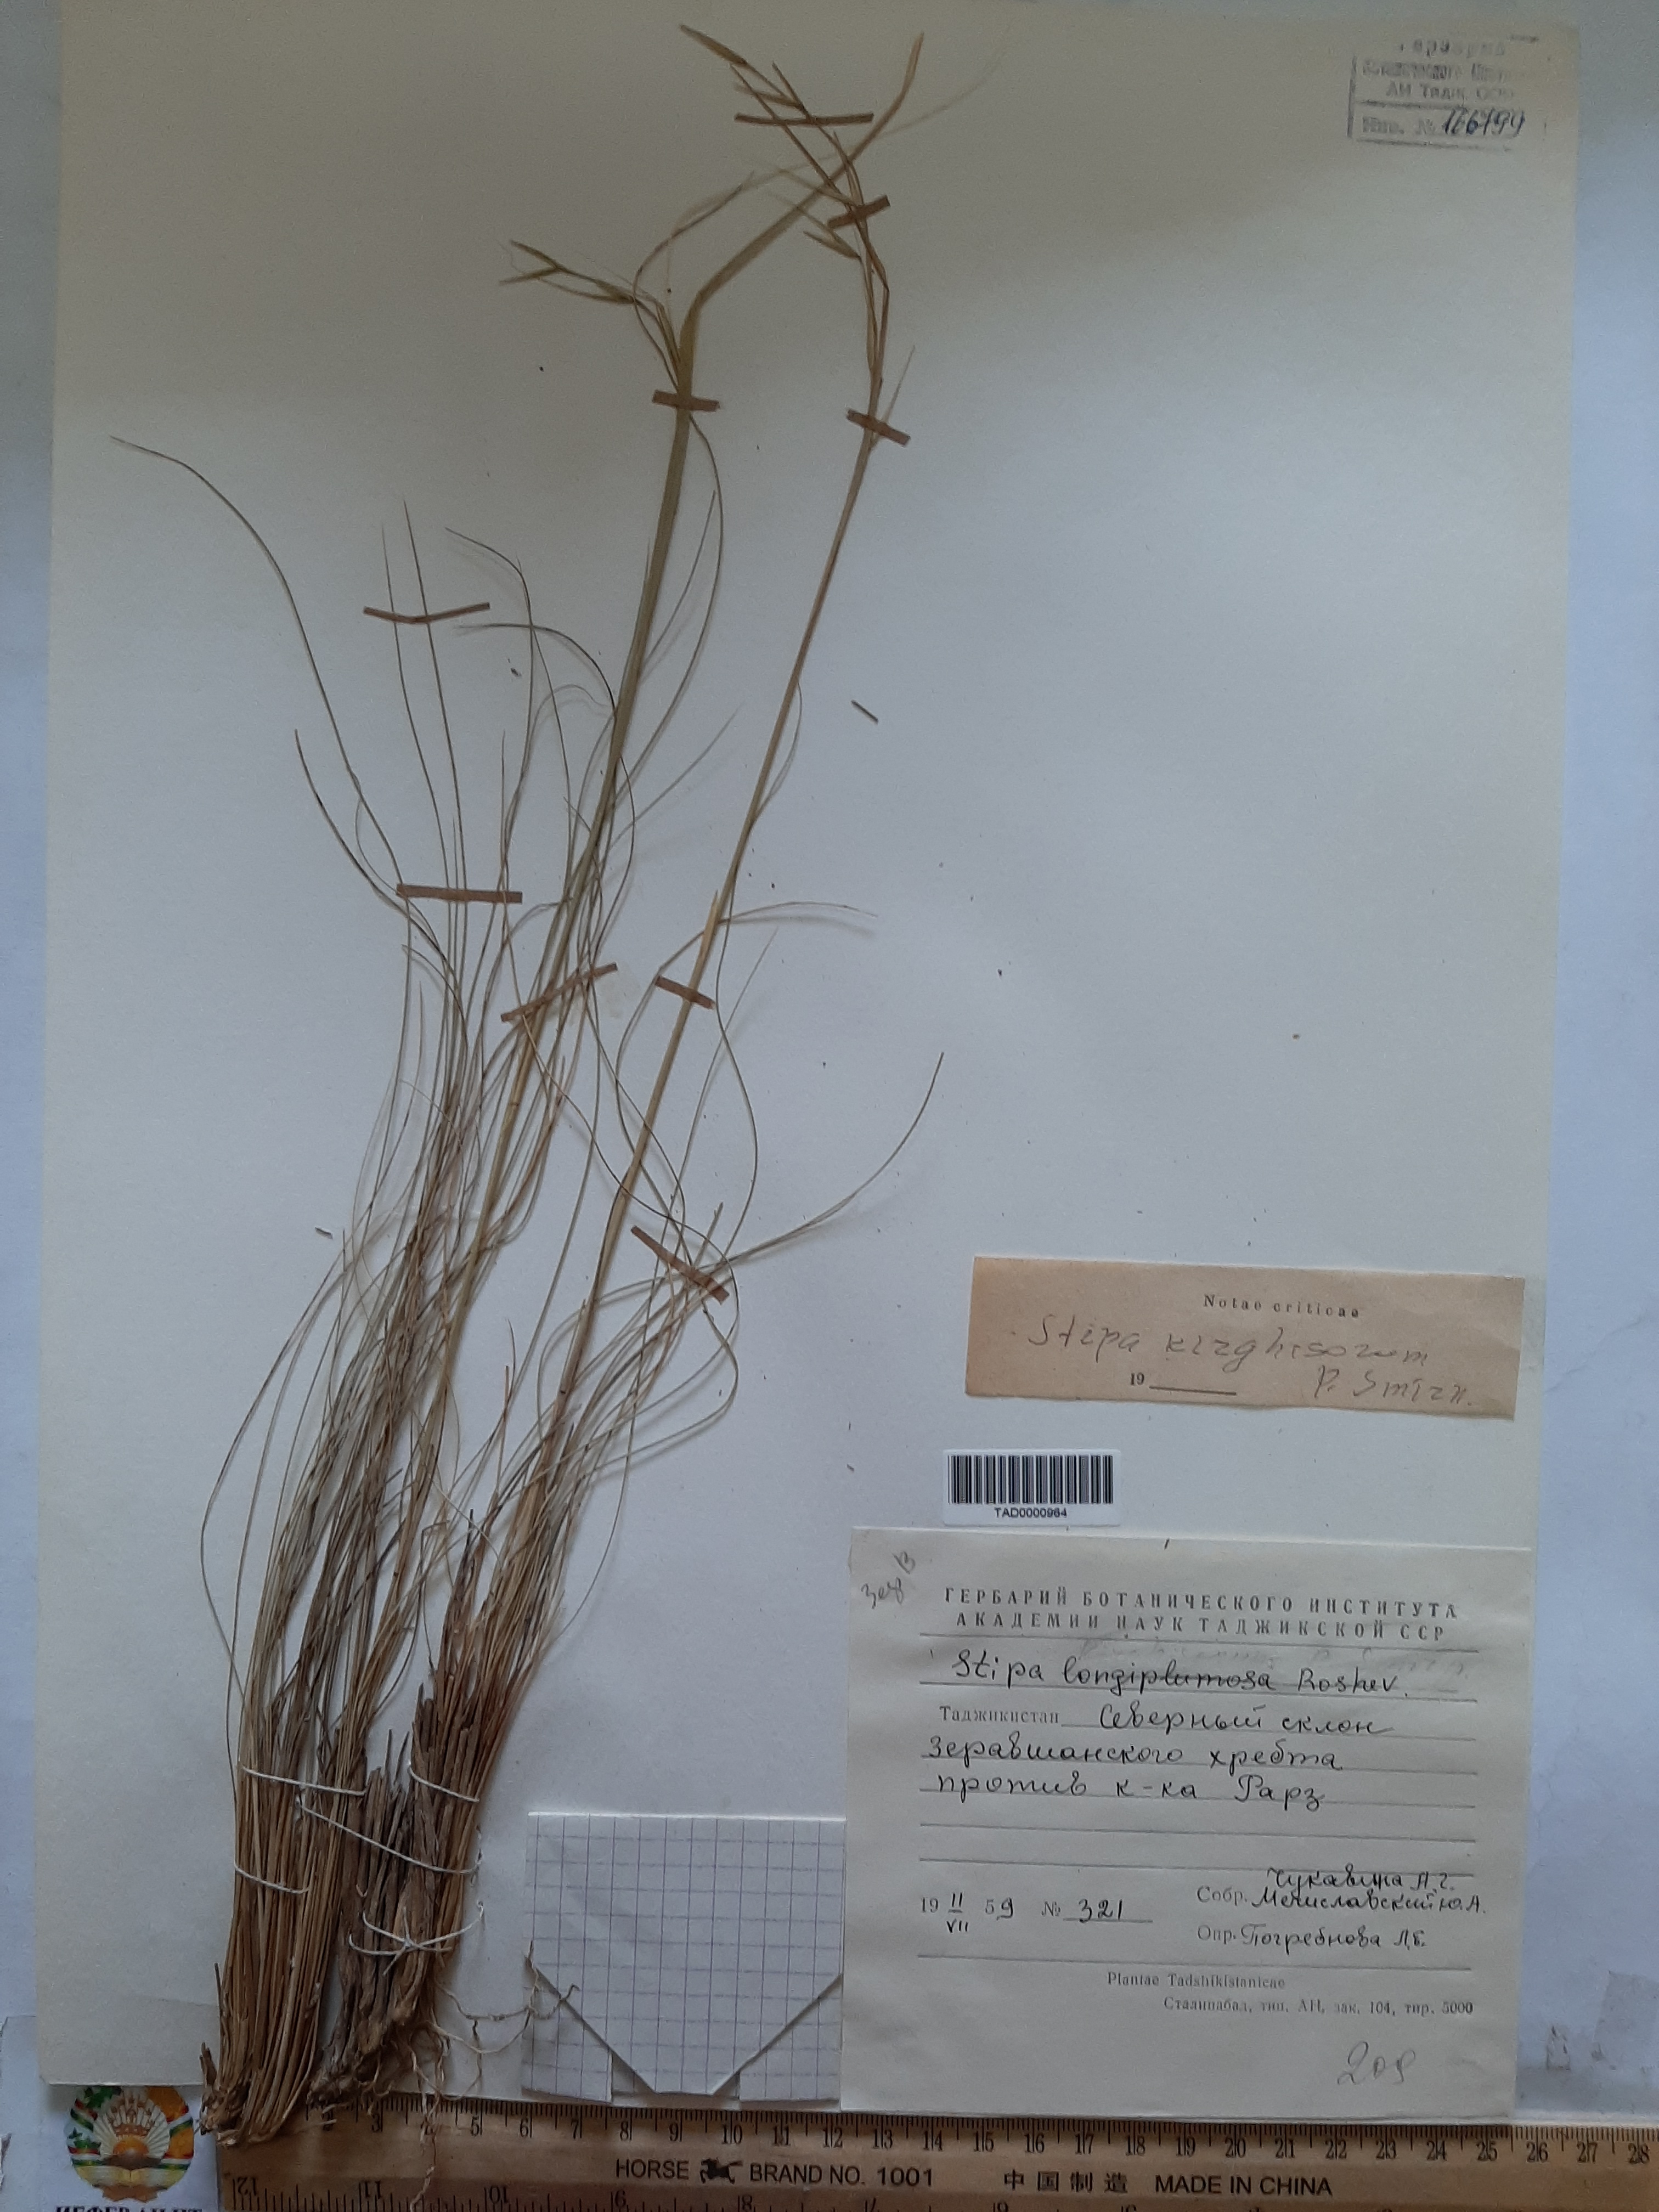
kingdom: Plantae
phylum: Tracheophyta
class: Liliopsida
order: Poales
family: Poaceae
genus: Stipa
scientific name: Stipa kirghisorum
